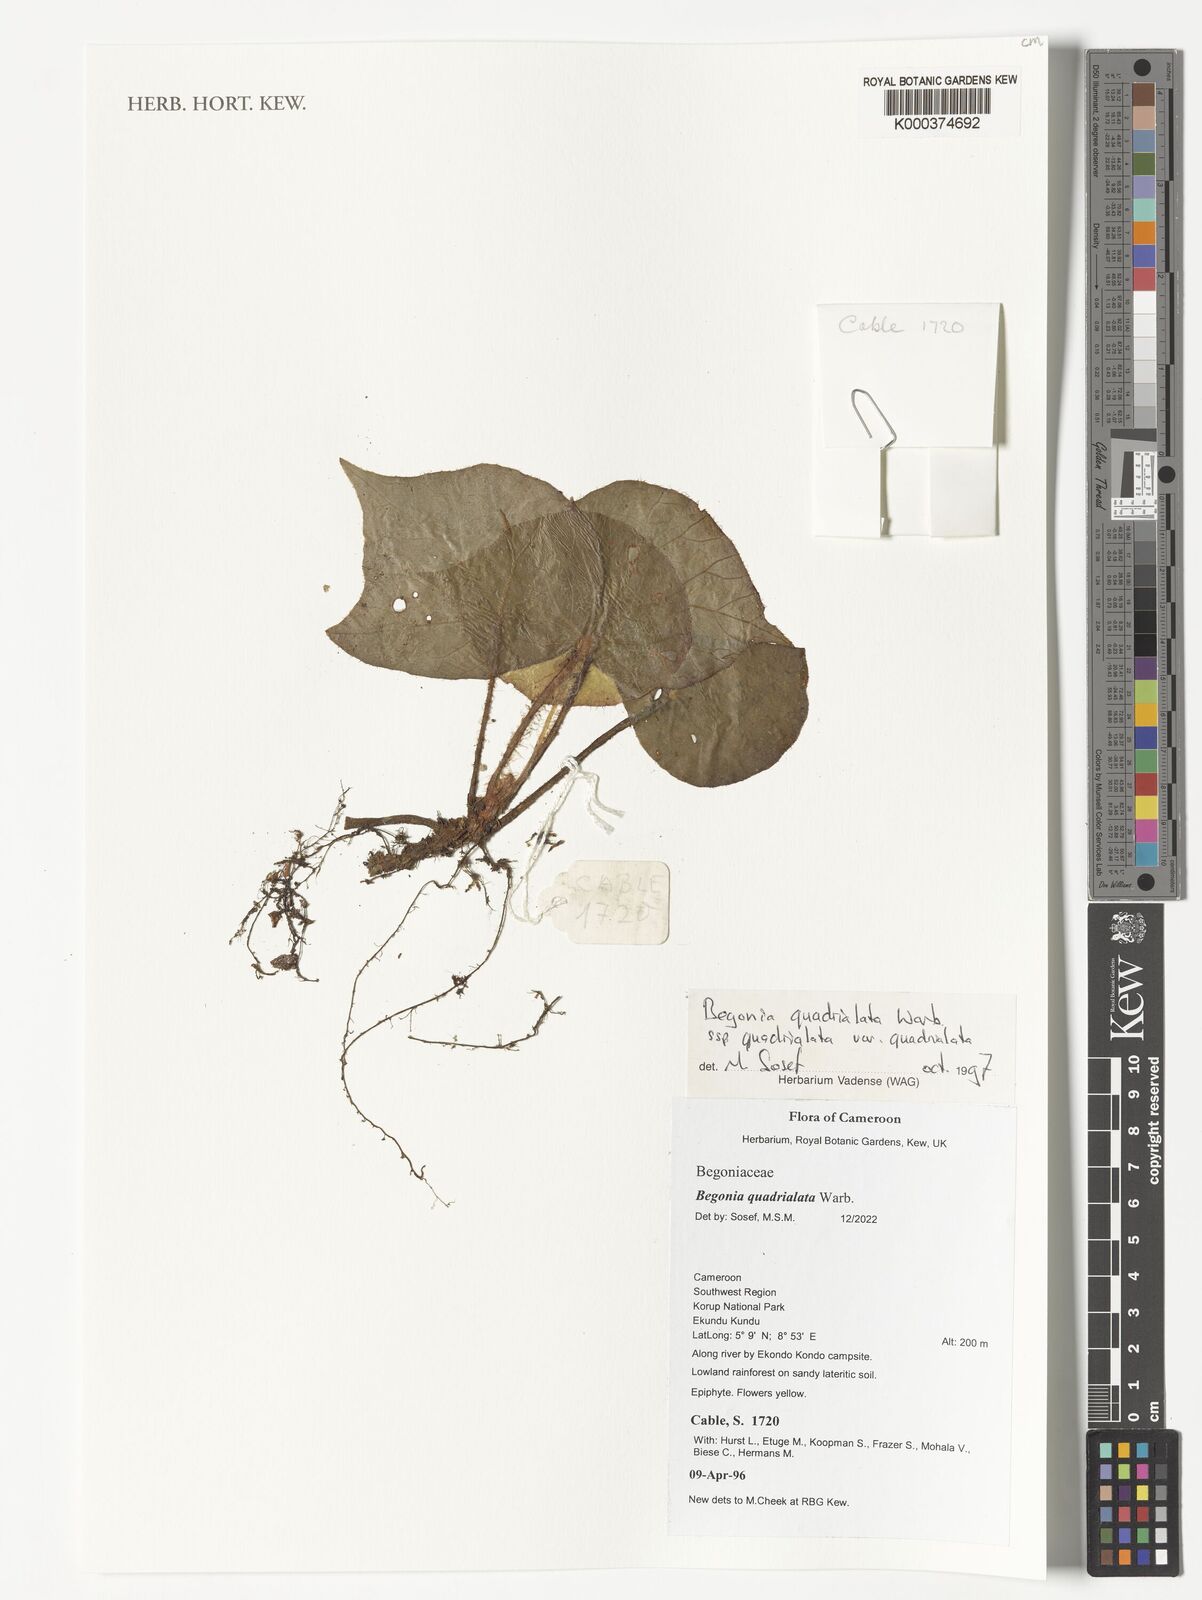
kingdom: Plantae
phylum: Tracheophyta
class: Magnoliopsida
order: Cucurbitales
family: Begoniaceae
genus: Begonia
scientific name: Begonia quadrialata
